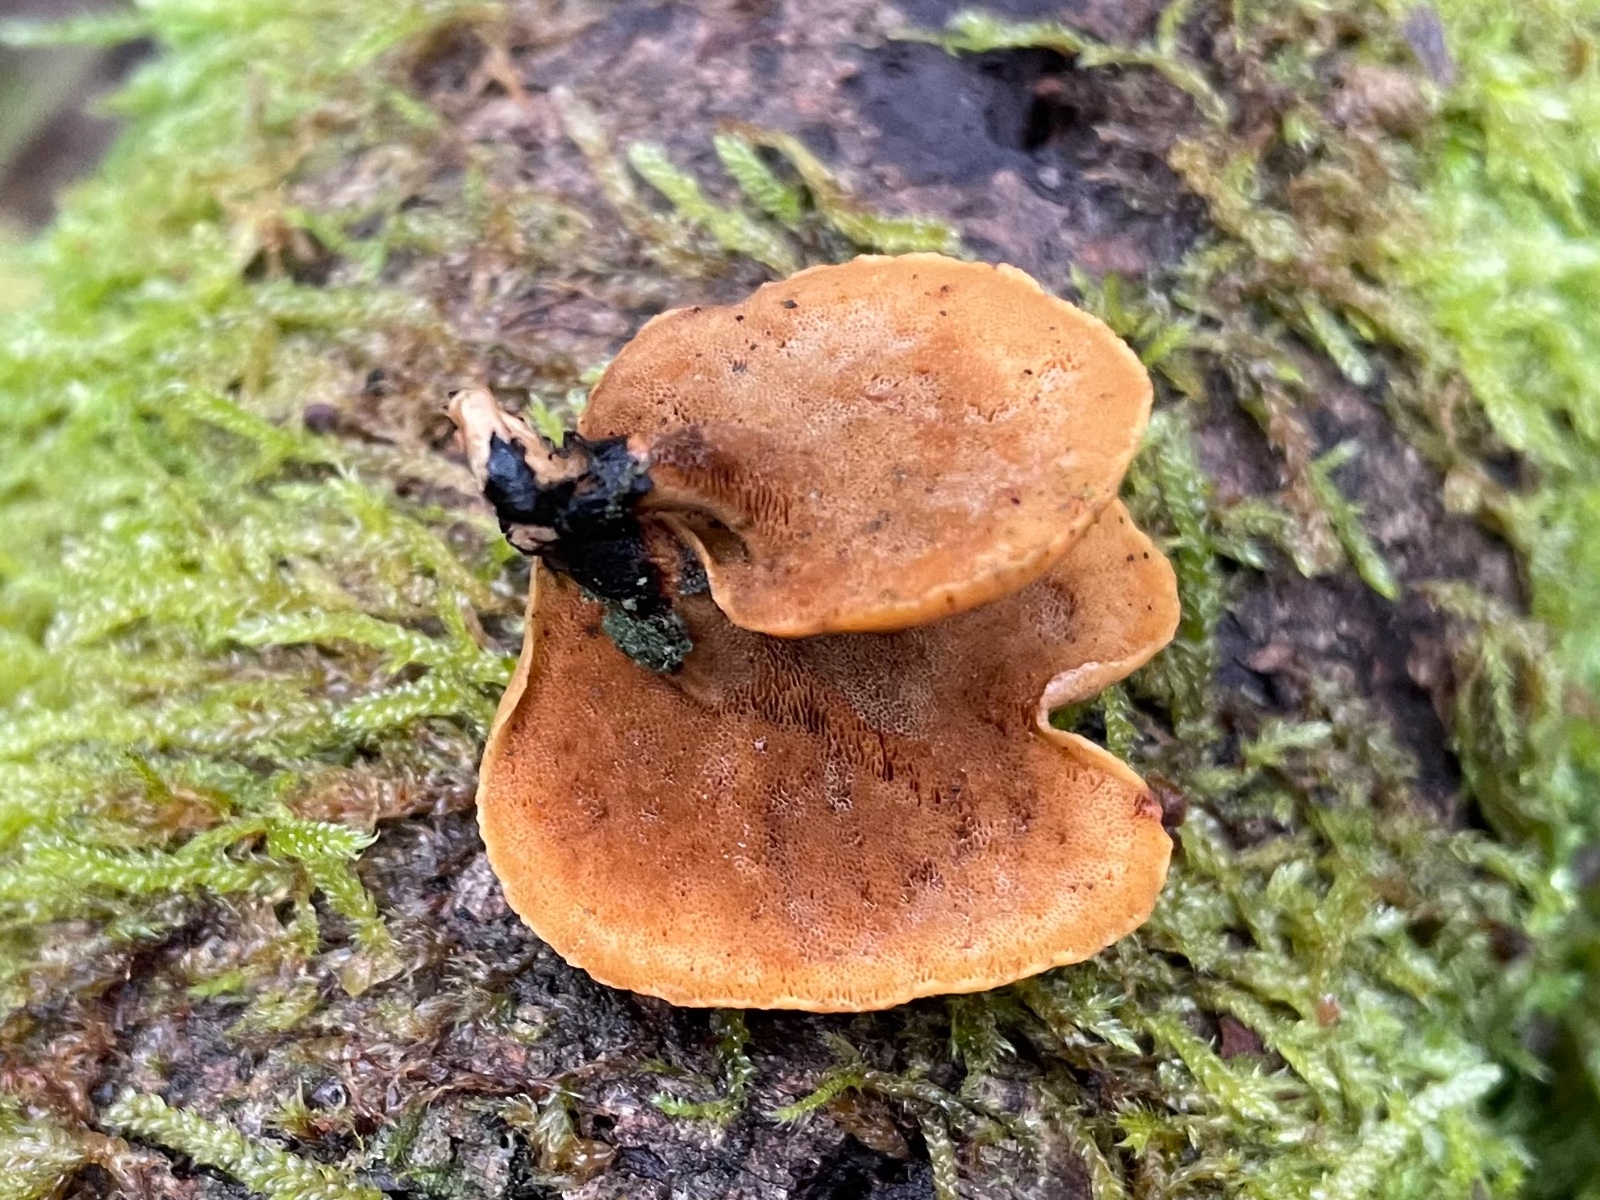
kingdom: Fungi
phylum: Basidiomycota
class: Agaricomycetes
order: Polyporales
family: Polyporaceae
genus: Cerioporus
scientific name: Cerioporus varius
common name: foranderlig stilkporesvamp
